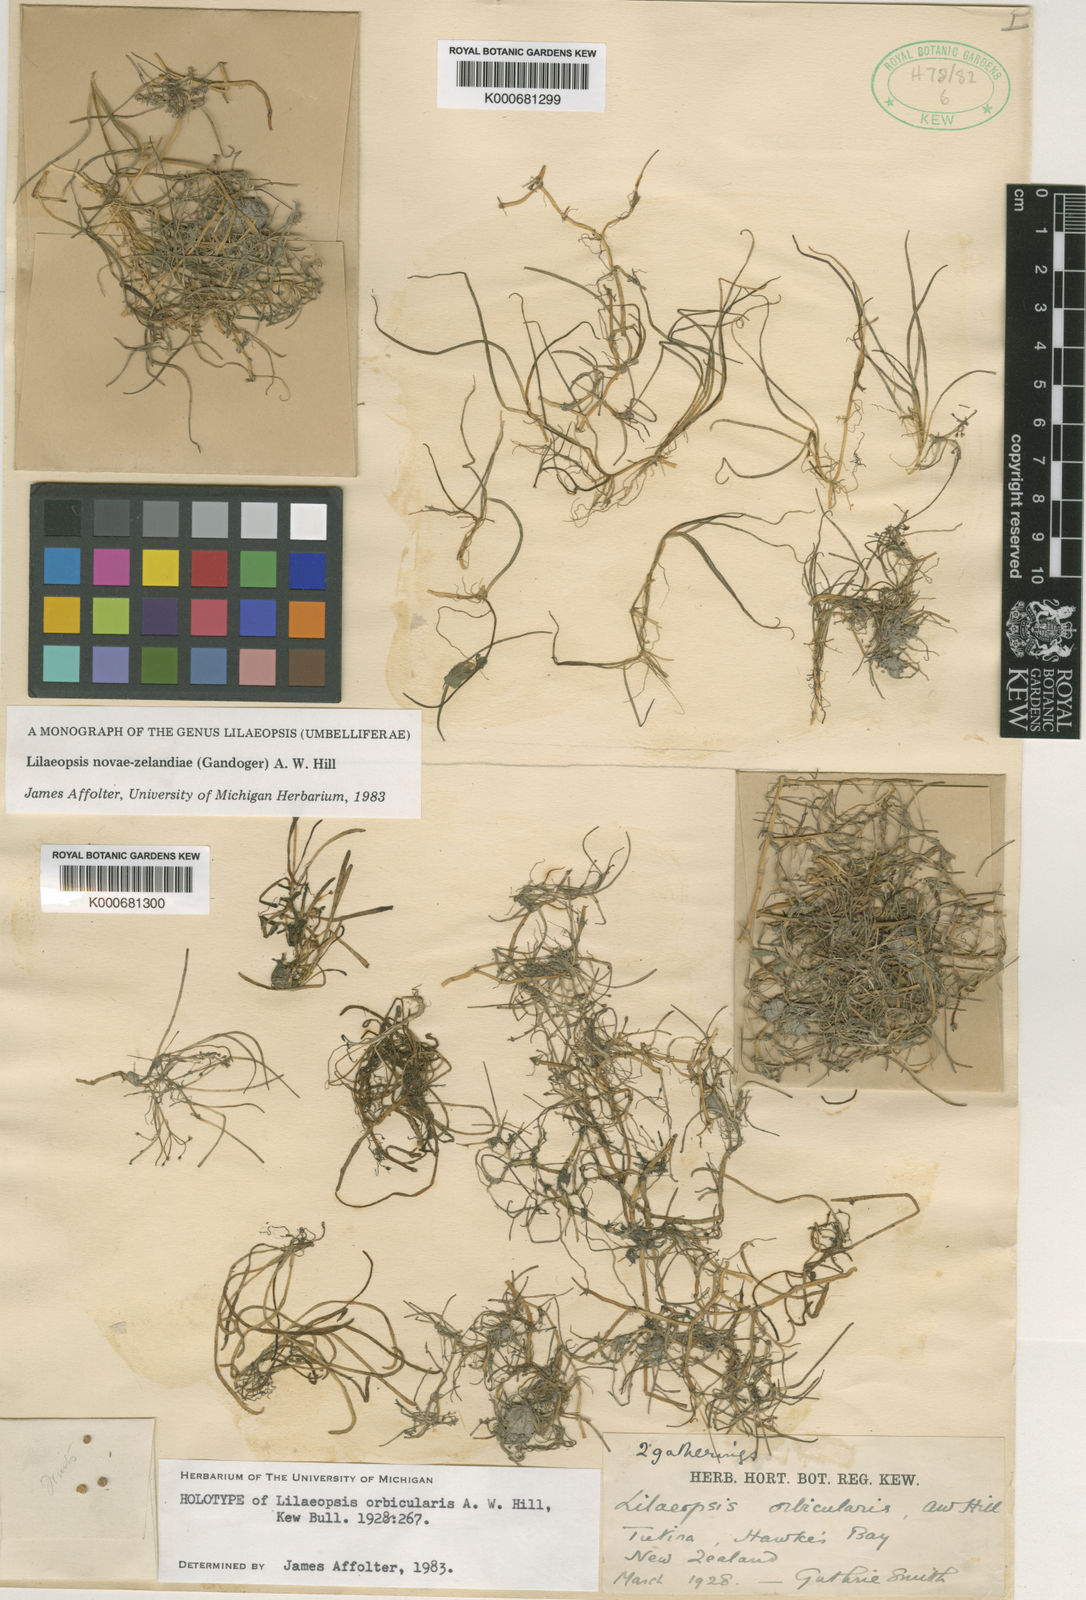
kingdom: Plantae
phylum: Tracheophyta
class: Magnoliopsida
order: Apiales
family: Apiaceae
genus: Lilaeopsis
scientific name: Lilaeopsis novae-zelandiae
